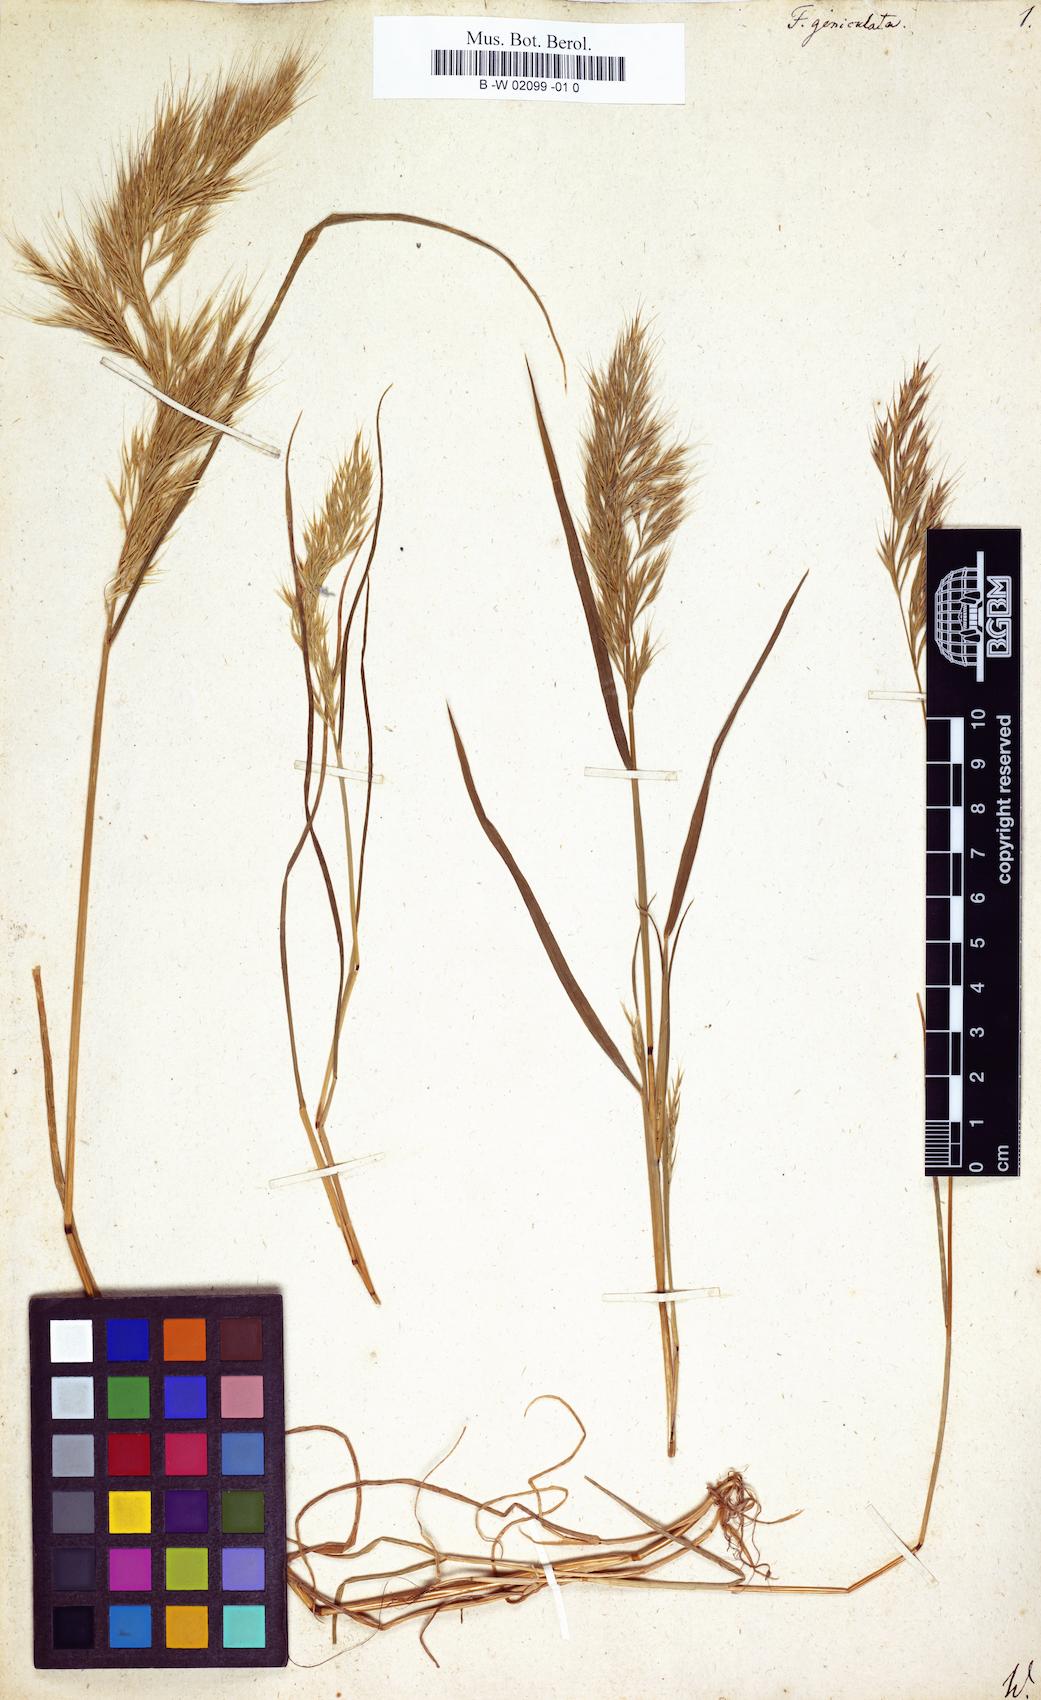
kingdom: Plantae
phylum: Tracheophyta
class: Liliopsida
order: Poales
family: Poaceae
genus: Festuca
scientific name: Festuca geniculata
